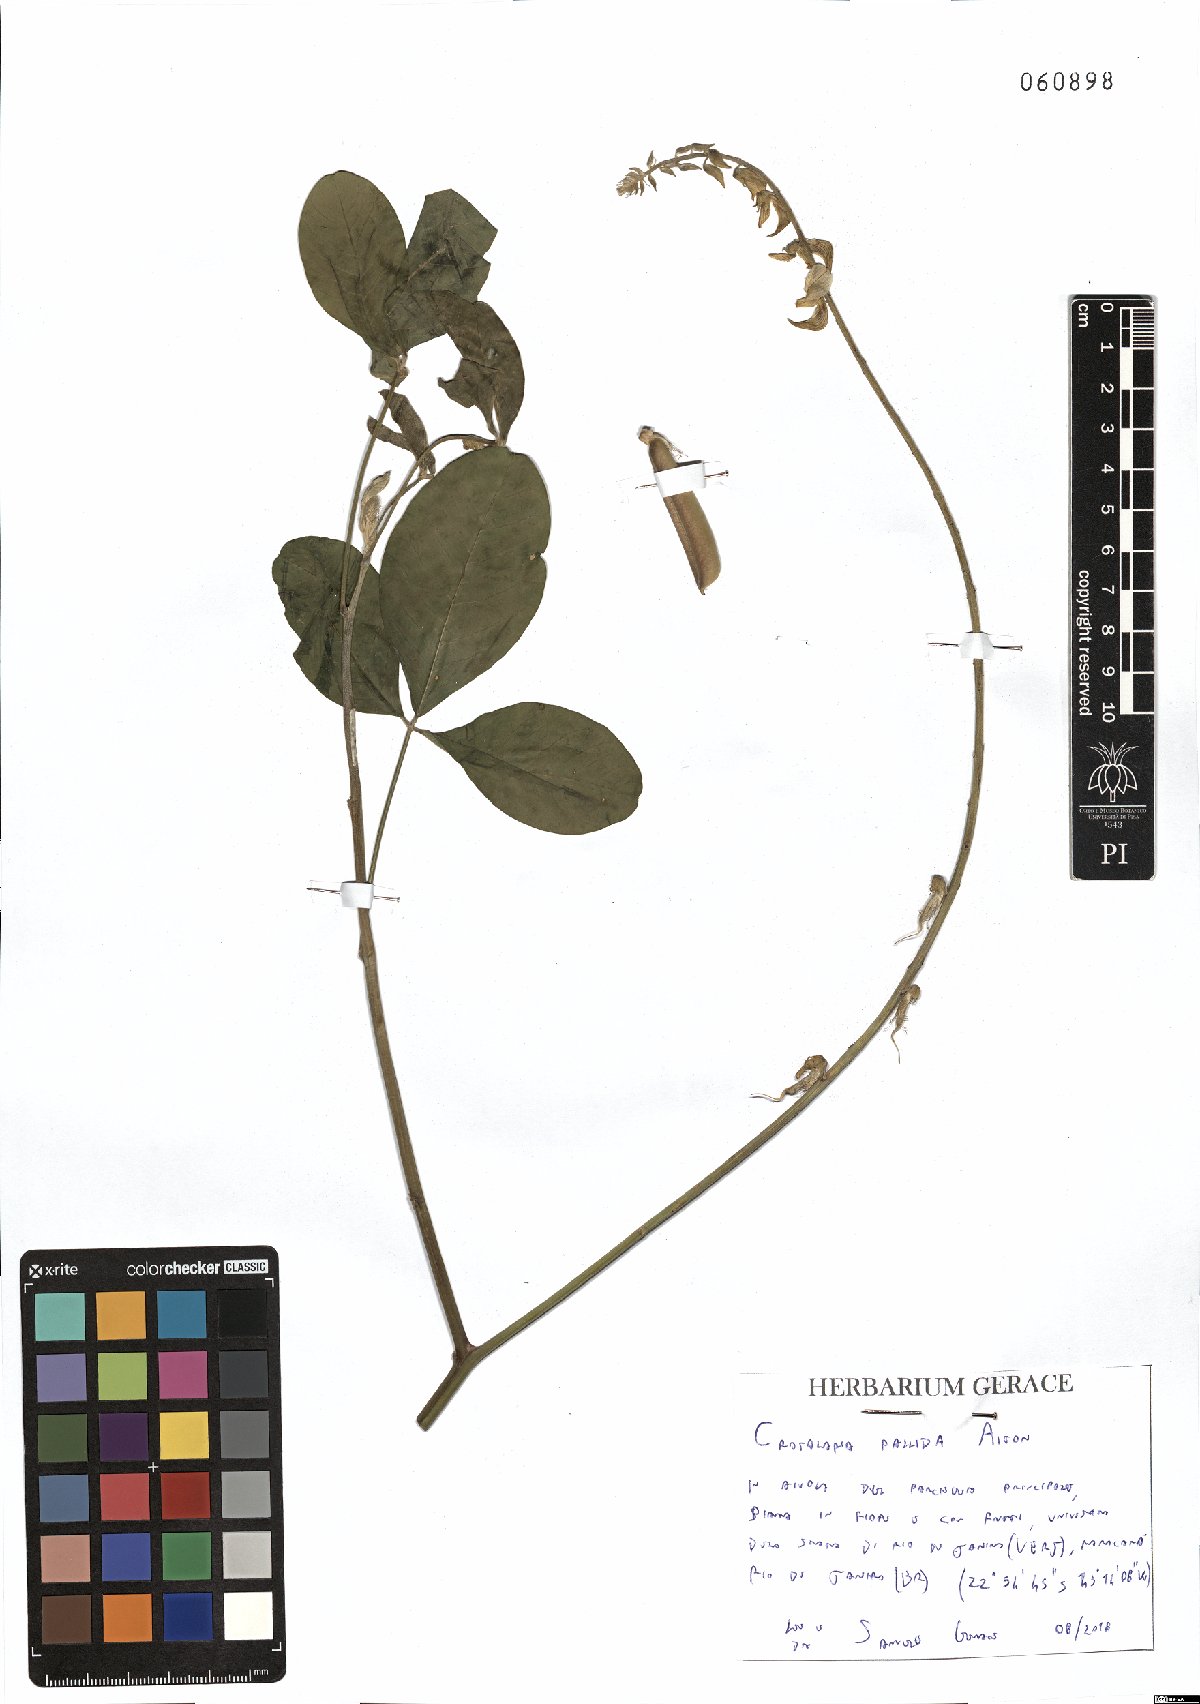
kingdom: Plantae
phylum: Tracheophyta
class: Magnoliopsida
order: Fabales
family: Fabaceae
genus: Crotalaria
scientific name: Crotalaria pallida
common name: Smooth rattlebox
